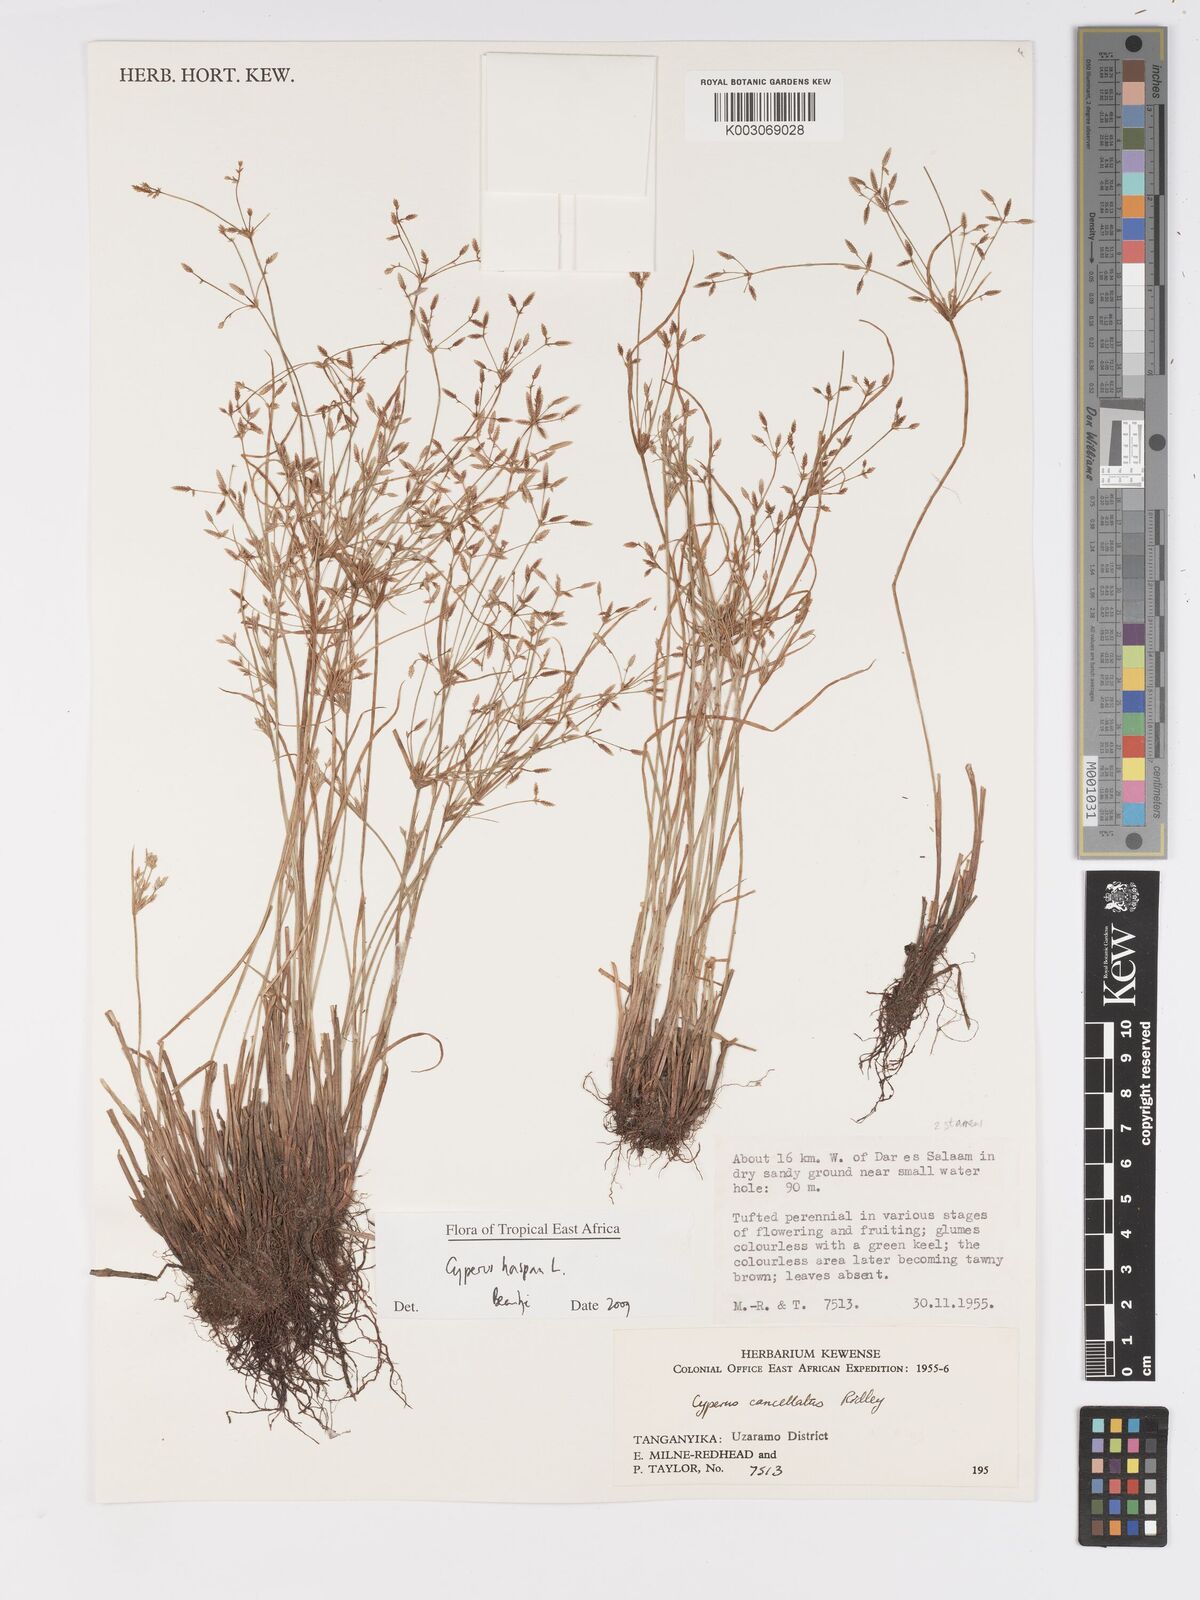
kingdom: Plantae
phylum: Tracheophyta
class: Liliopsida
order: Poales
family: Cyperaceae
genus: Cyperus
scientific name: Cyperus haspan
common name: Haspan flatsedge
